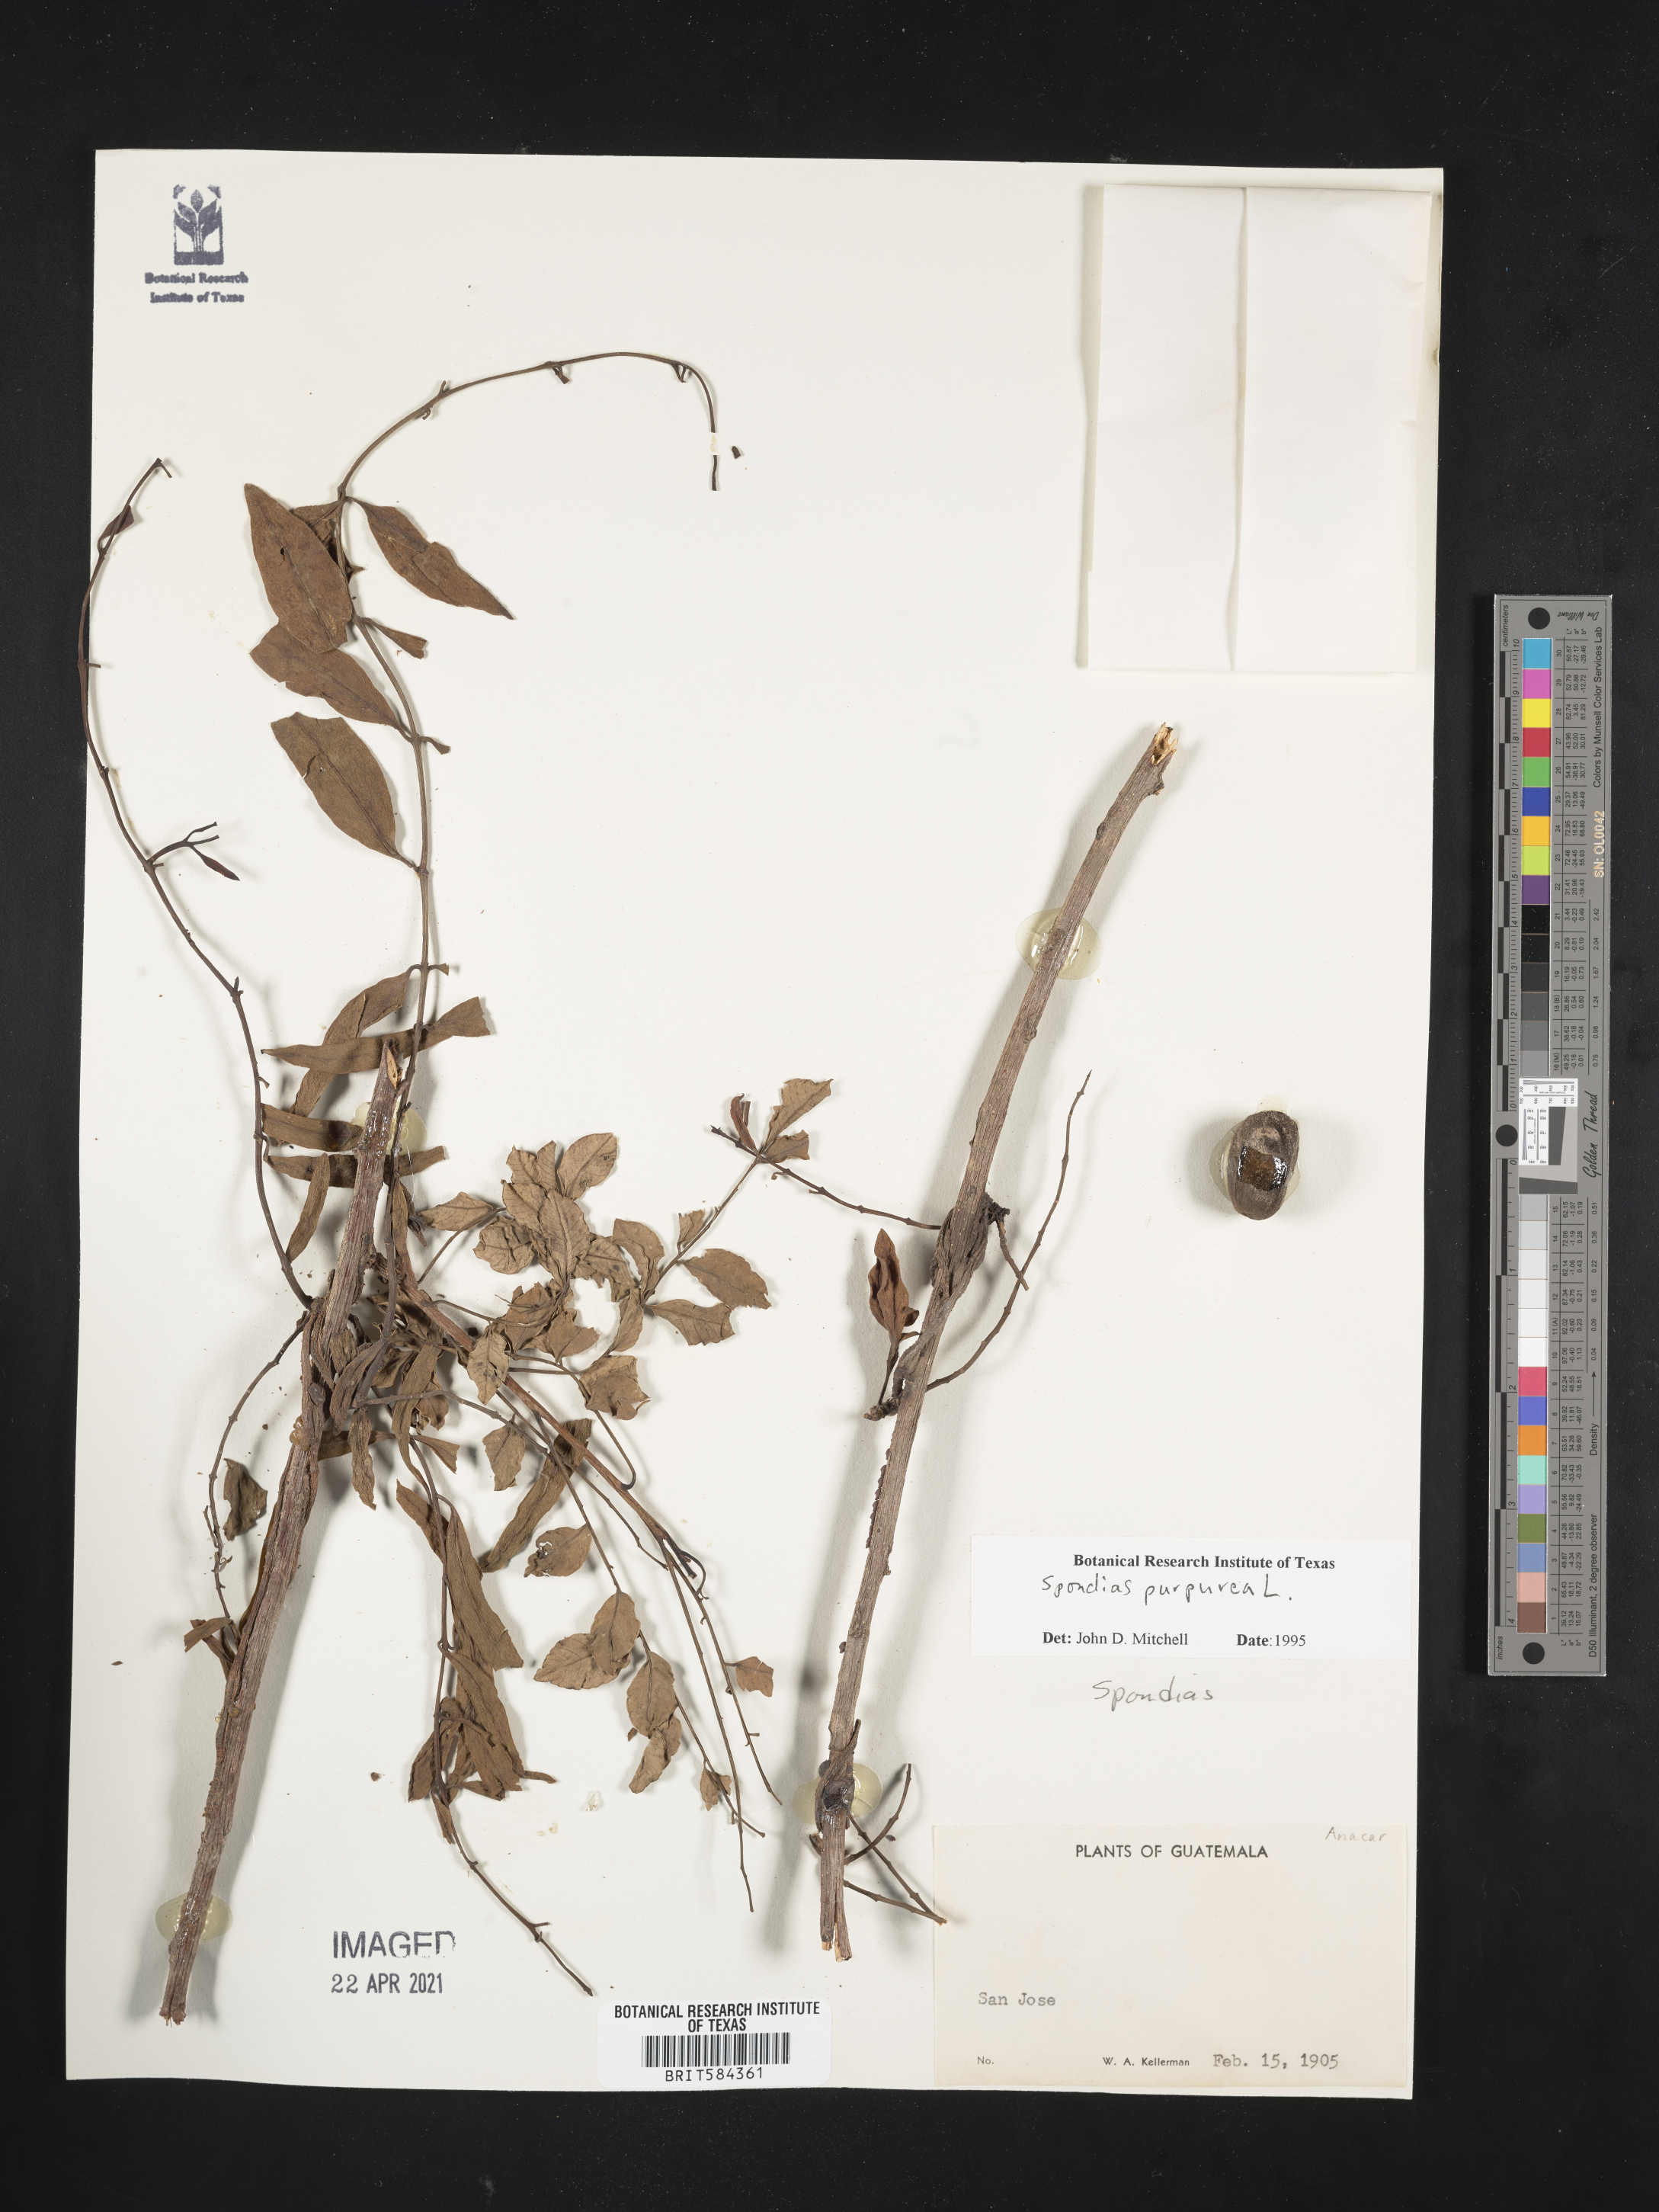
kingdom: Plantae
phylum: Tracheophyta
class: Magnoliopsida
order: Sapindales
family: Anacardiaceae
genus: Spondias
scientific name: Spondias purpurea
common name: Purple mombin
